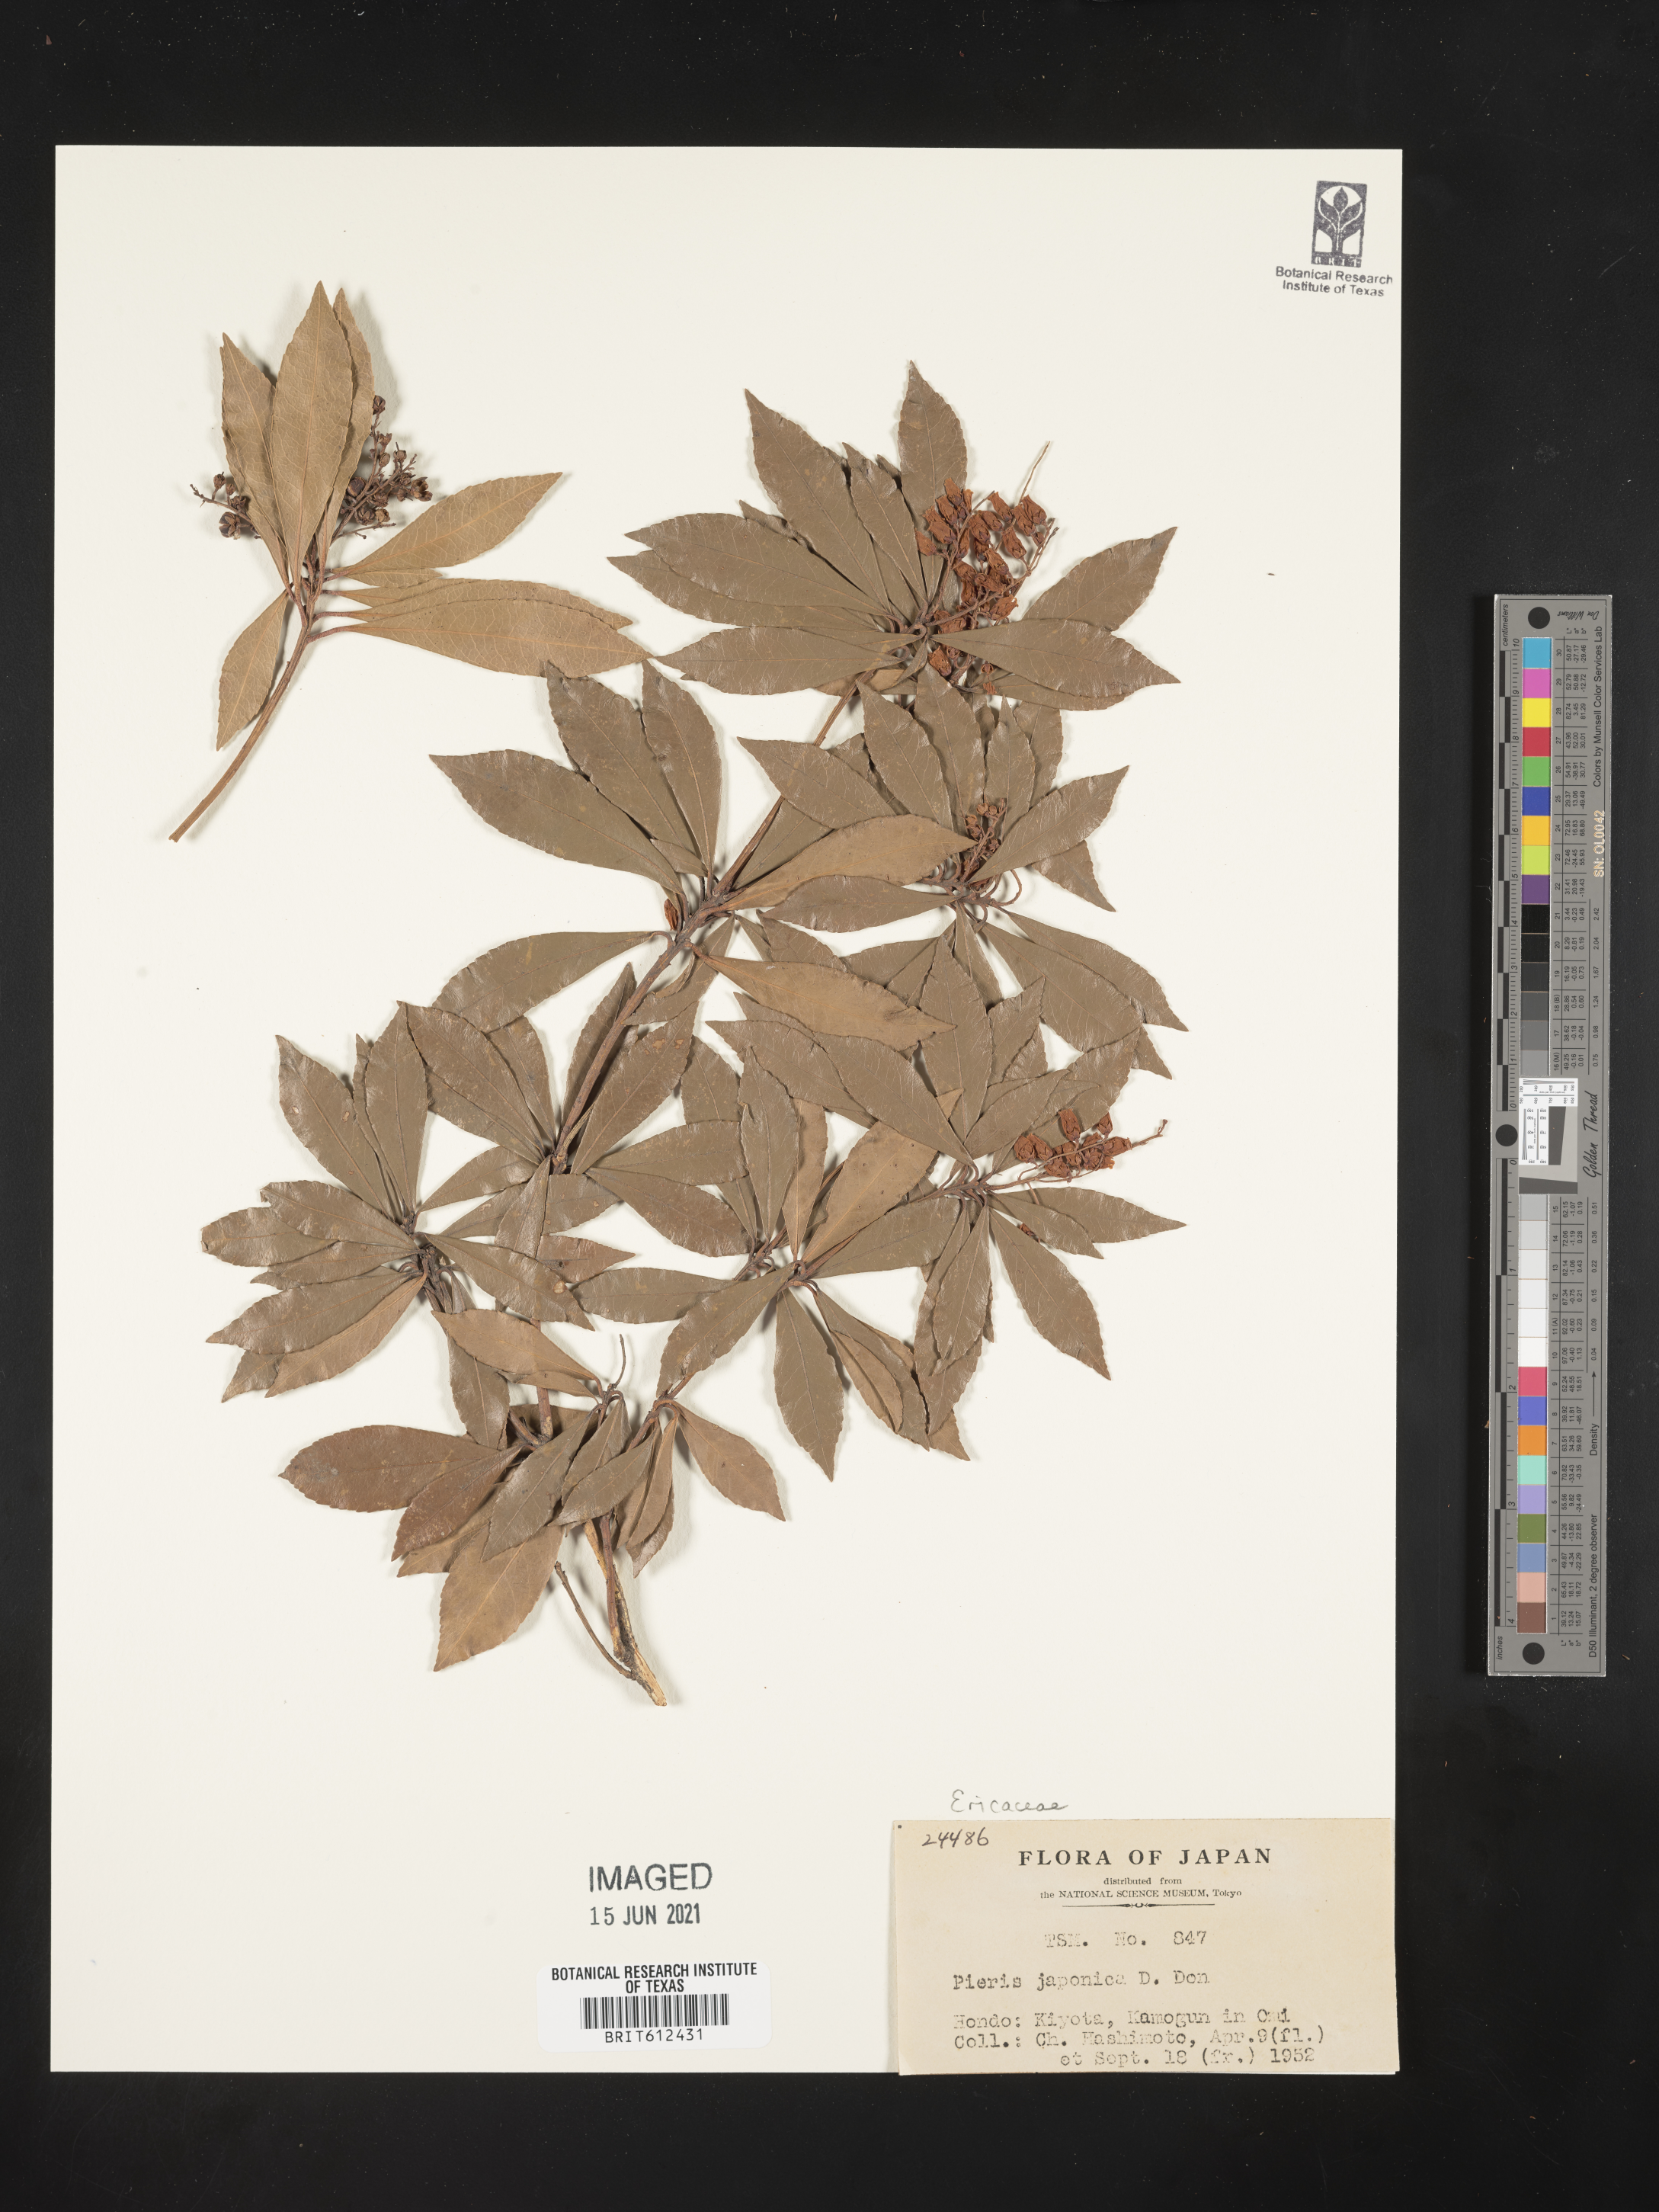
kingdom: Plantae
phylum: Tracheophyta
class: Magnoliopsida
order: Ericales
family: Ericaceae
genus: Pieris
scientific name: Pieris japonica
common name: Japanese pieris
